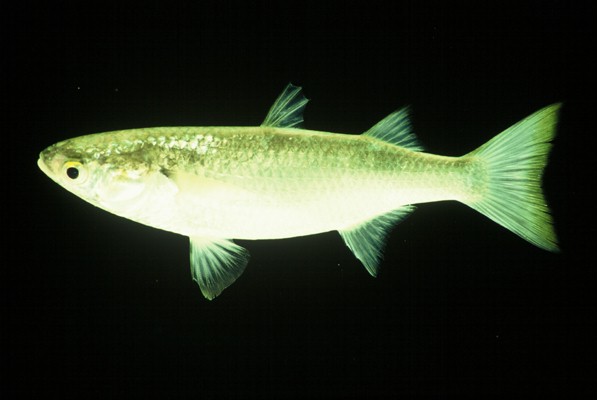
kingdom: Animalia
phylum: Chordata
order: Mugiliformes
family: Mugilidae
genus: Osteomugil
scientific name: Osteomugil cunnesius
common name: Longarm mullet
